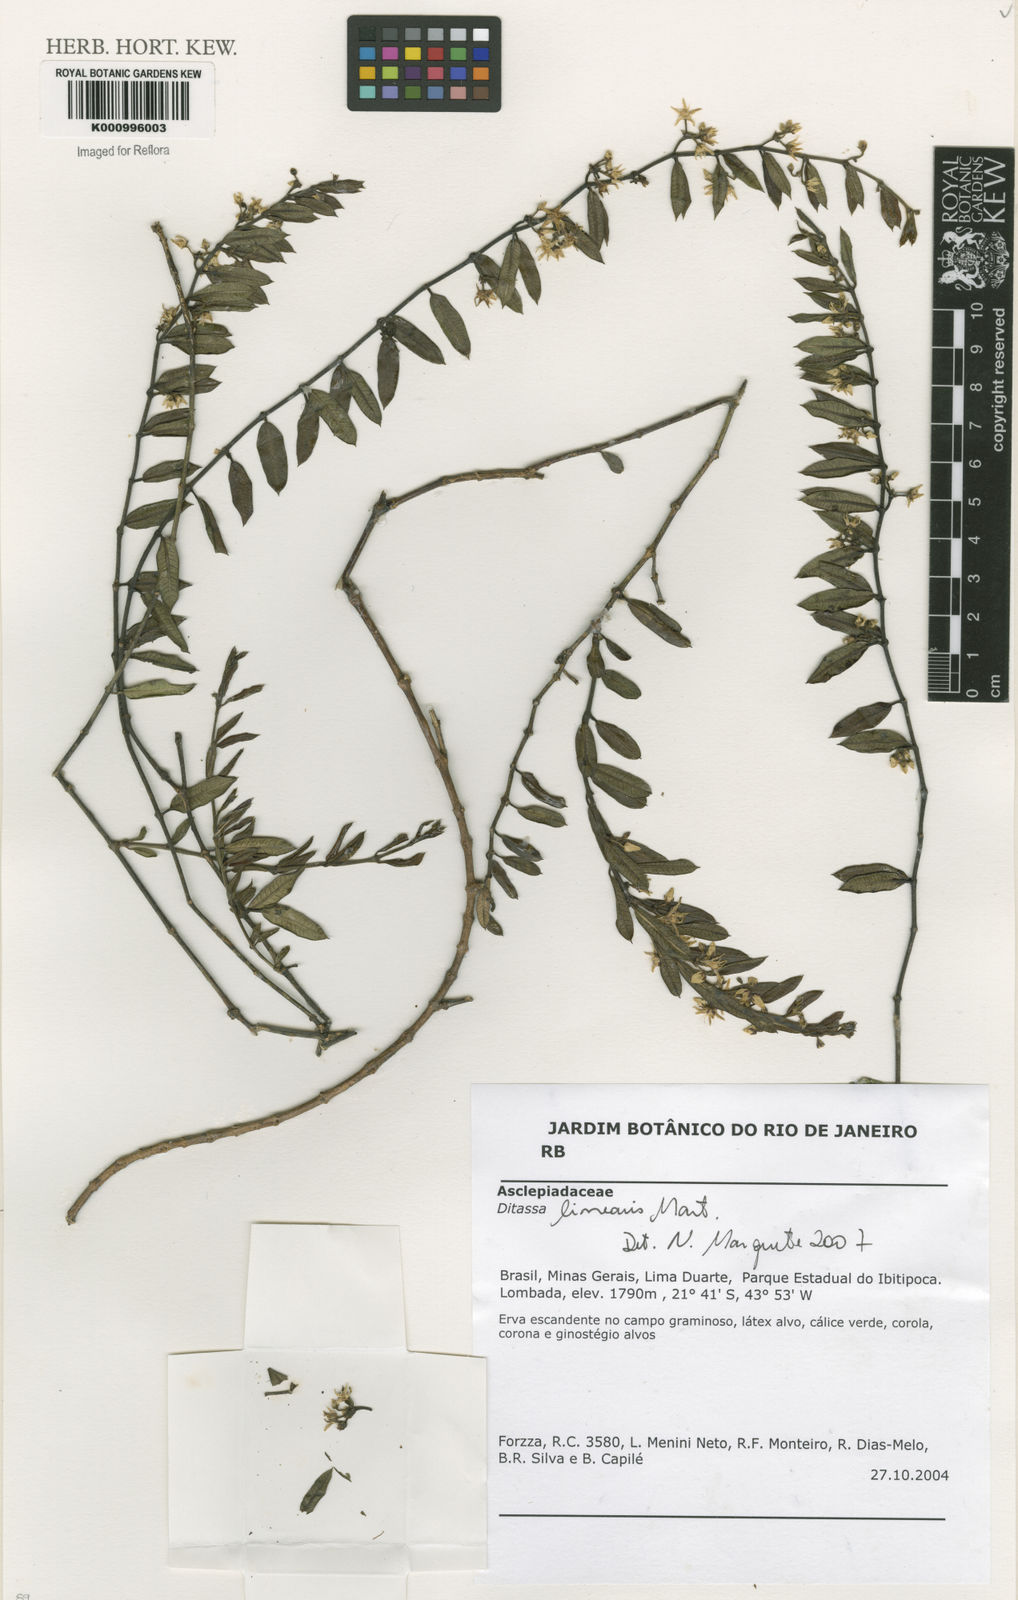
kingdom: Plantae
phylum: Tracheophyta
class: Magnoliopsida
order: Gentianales
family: Apocynaceae
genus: Ditassa
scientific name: Ditassa linearis
